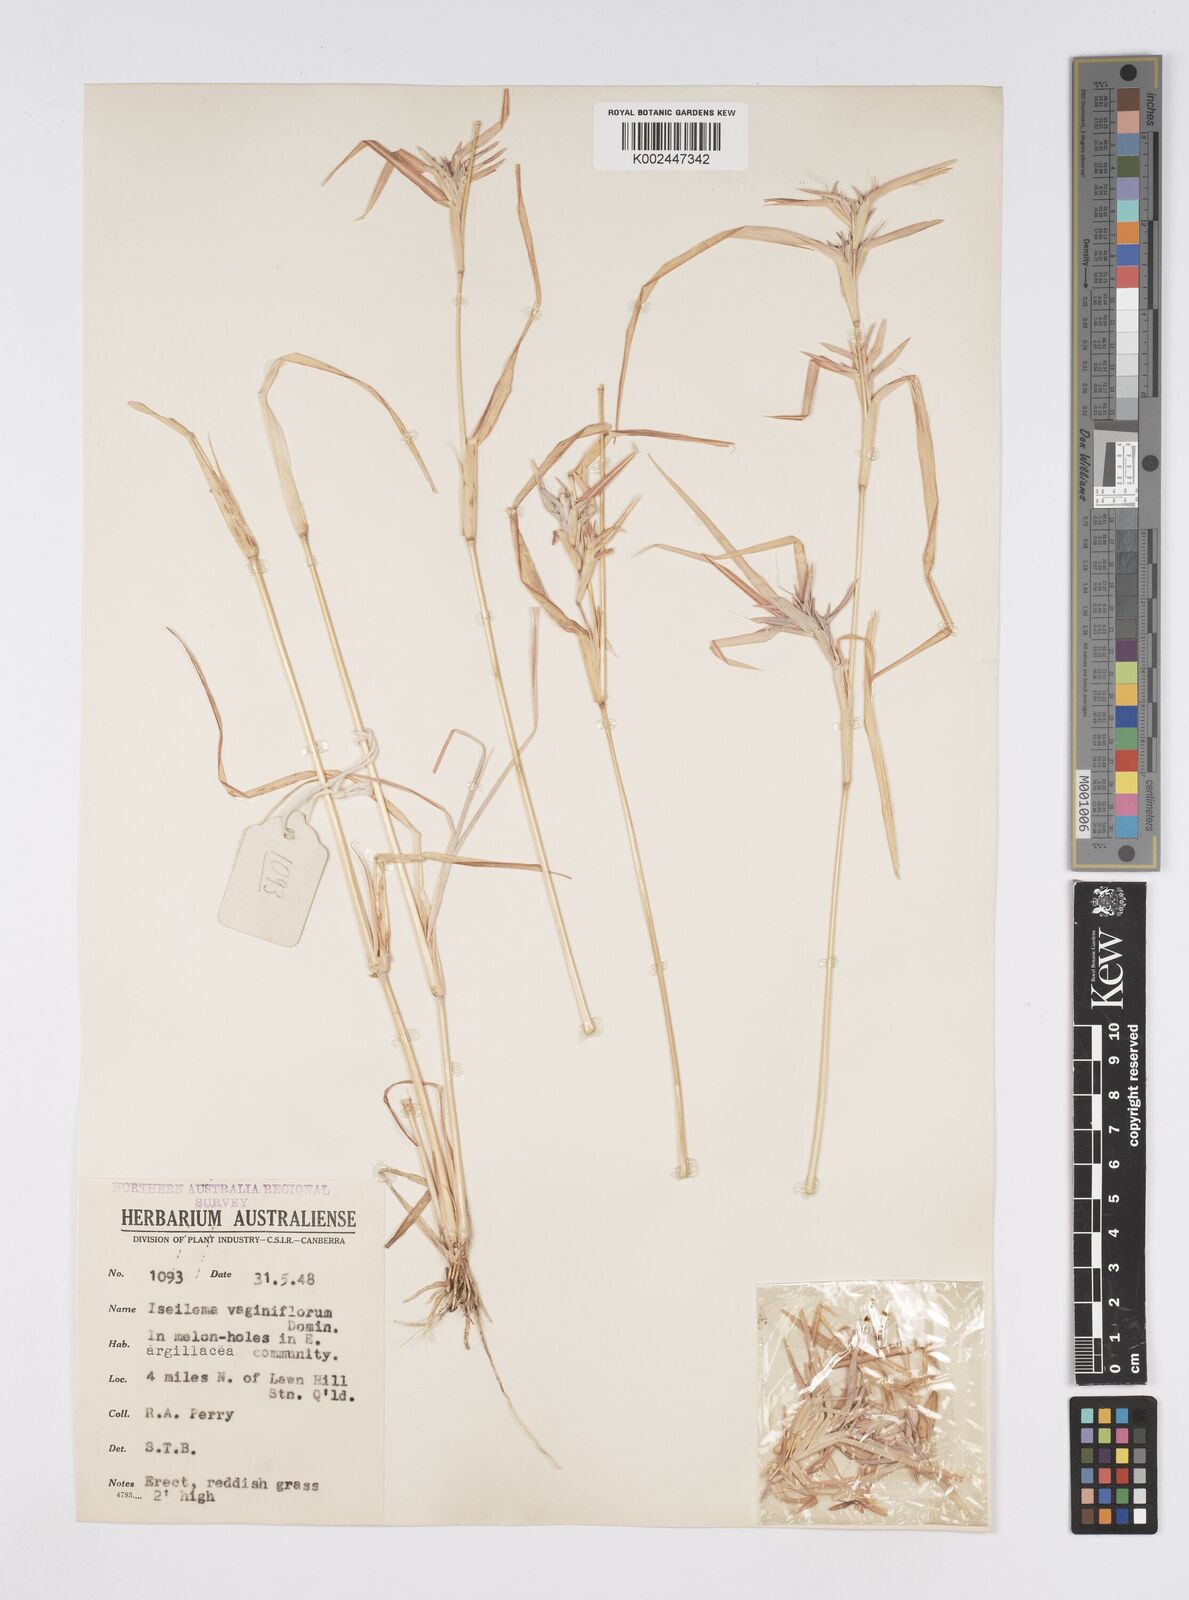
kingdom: Plantae
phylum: Tracheophyta
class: Liliopsida
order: Poales
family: Poaceae
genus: Iseilema
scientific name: Iseilema vaginiflorum
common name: Red flinders grass
